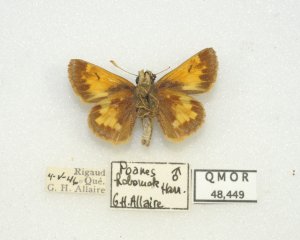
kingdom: Animalia
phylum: Arthropoda
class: Insecta
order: Lepidoptera
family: Hesperiidae
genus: Lon
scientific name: Lon hobomok
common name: Hobomok Skipper
